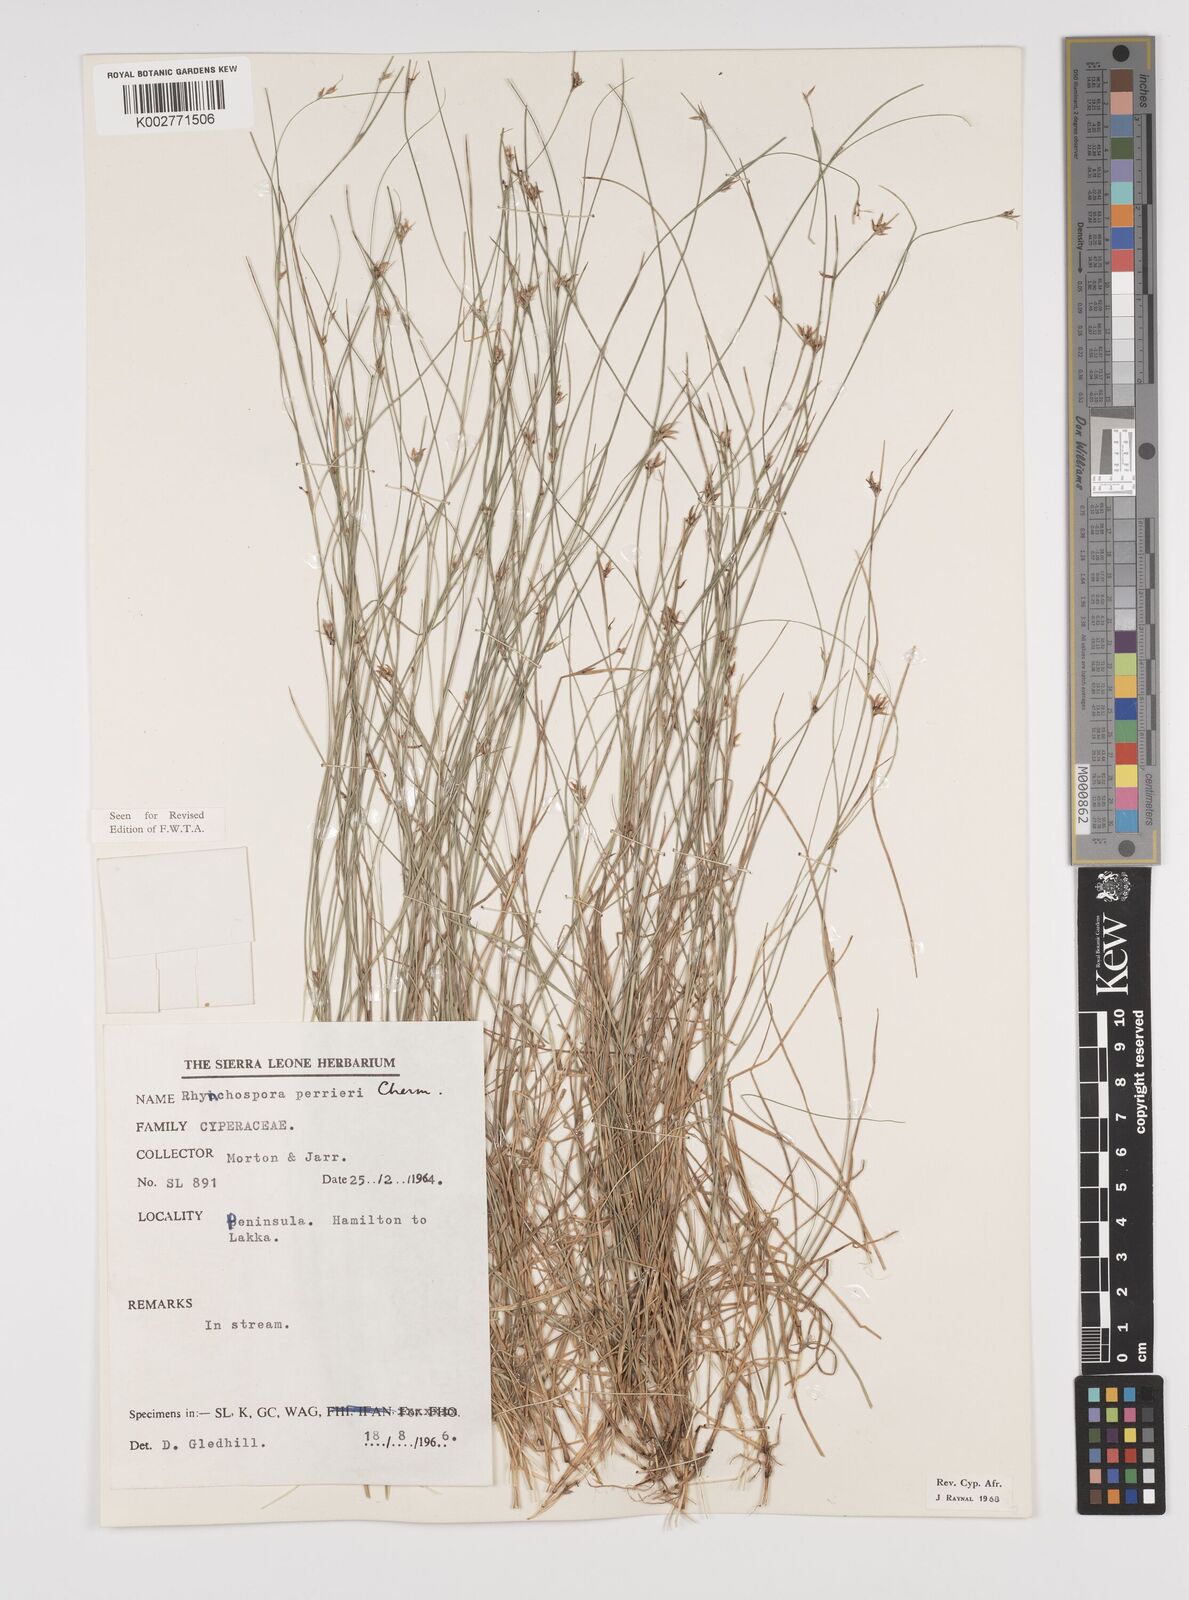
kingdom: Plantae
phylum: Tracheophyta
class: Liliopsida
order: Poales
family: Cyperaceae
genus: Rhynchospora
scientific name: Rhynchospora perrieri
